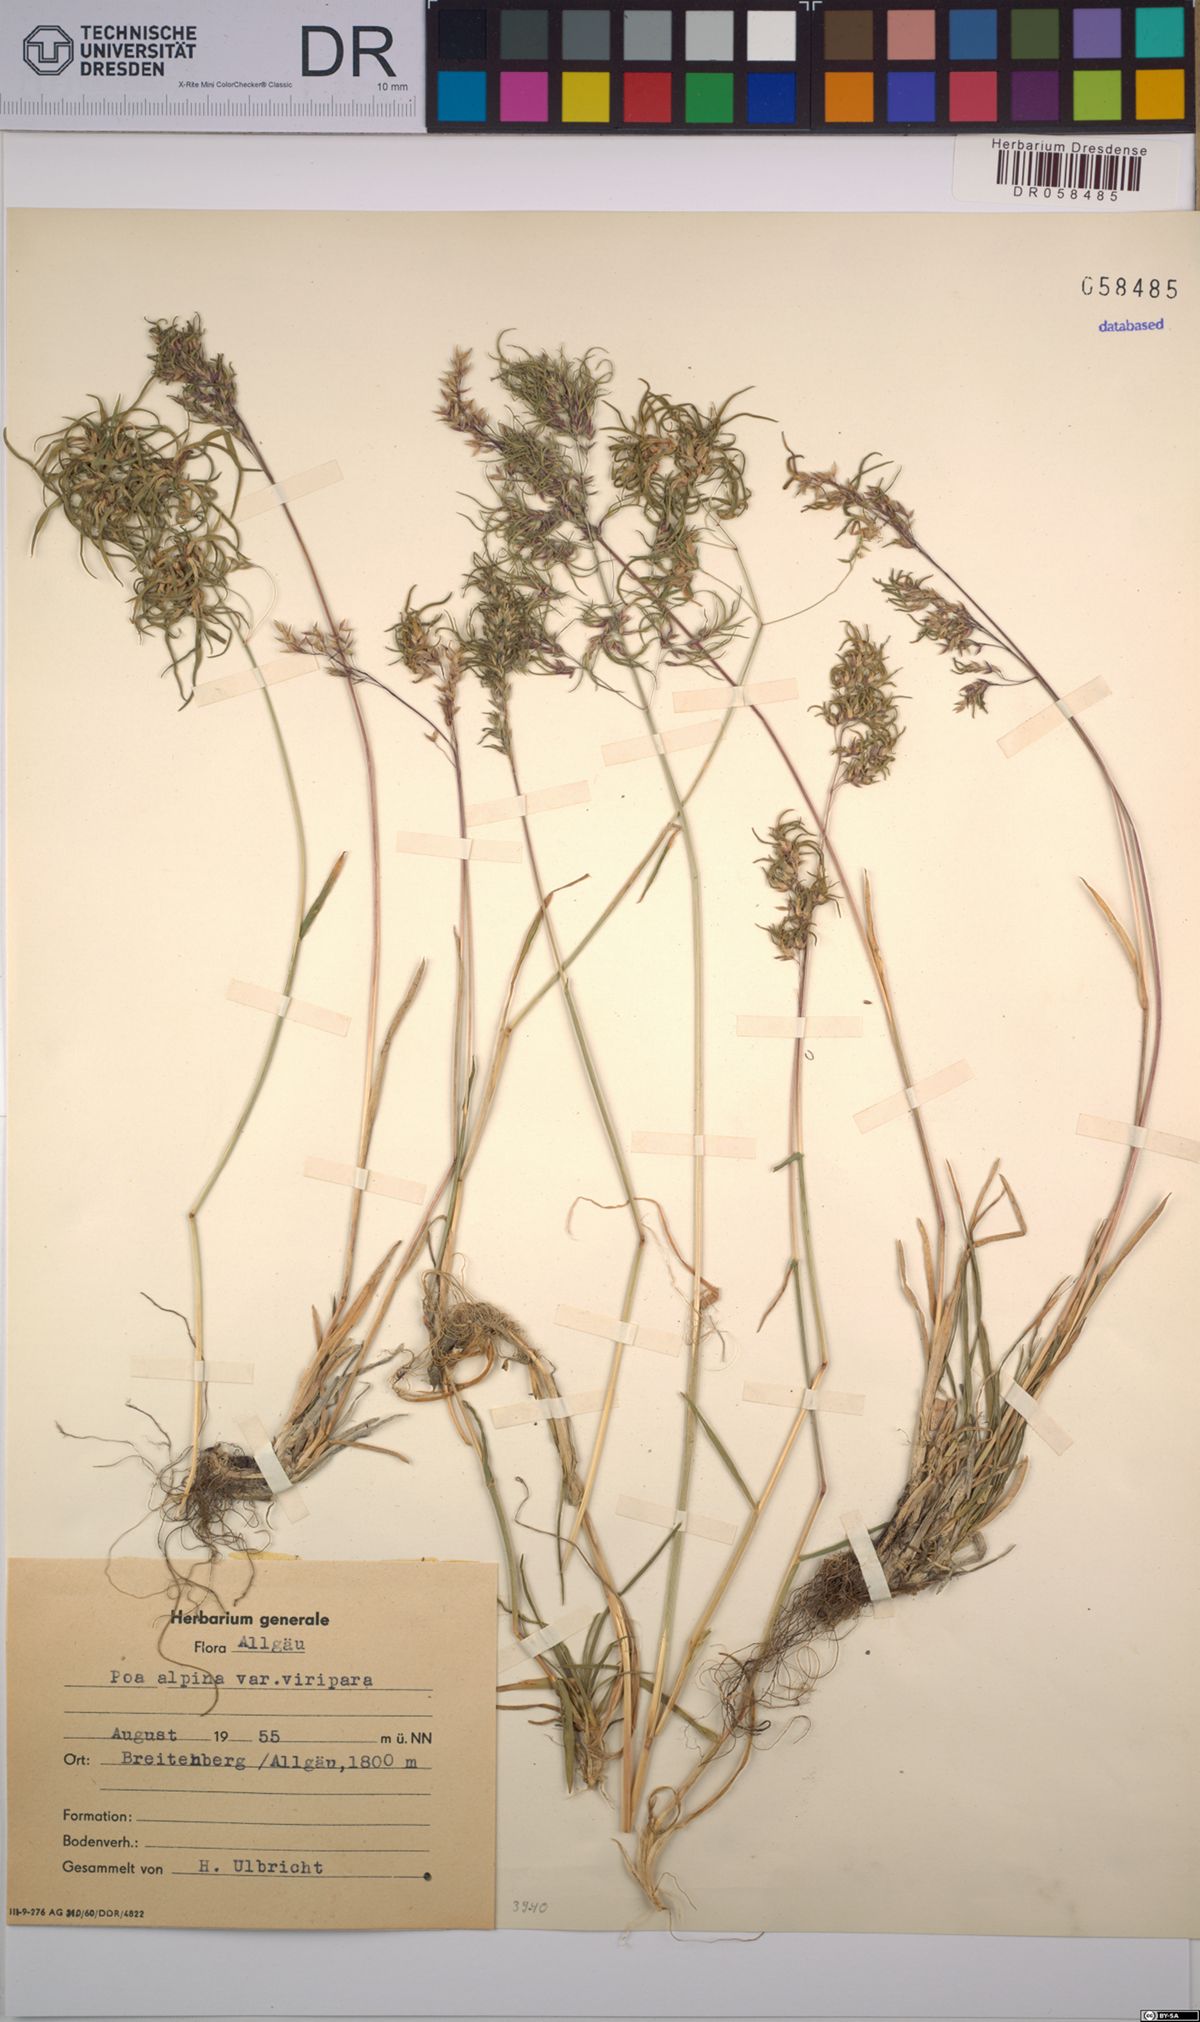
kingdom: Plantae
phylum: Tracheophyta
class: Liliopsida
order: Poales
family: Poaceae
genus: Poa
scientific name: Poa alpina
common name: Alpine bluegrass
